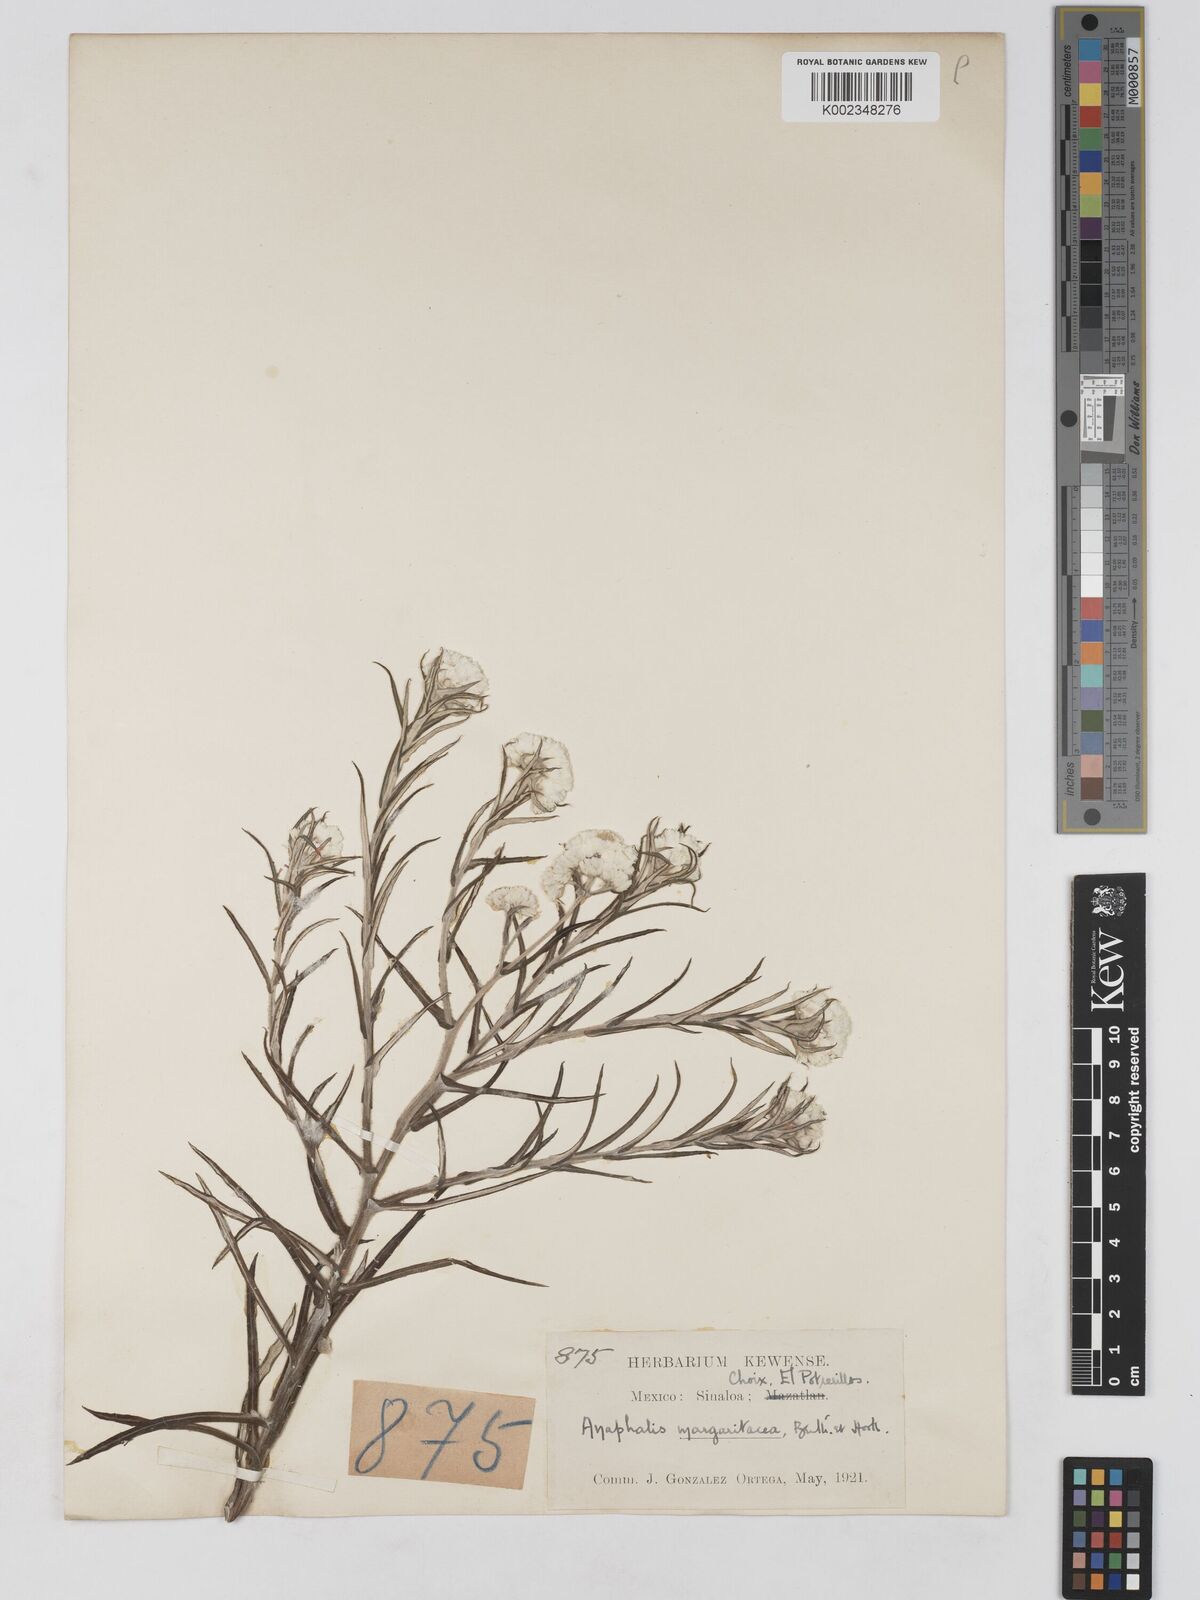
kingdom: Plantae
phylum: Tracheophyta
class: Magnoliopsida
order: Asterales
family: Asteraceae
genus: Anaphalis
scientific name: Anaphalis margaritacea
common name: Pearly everlasting
